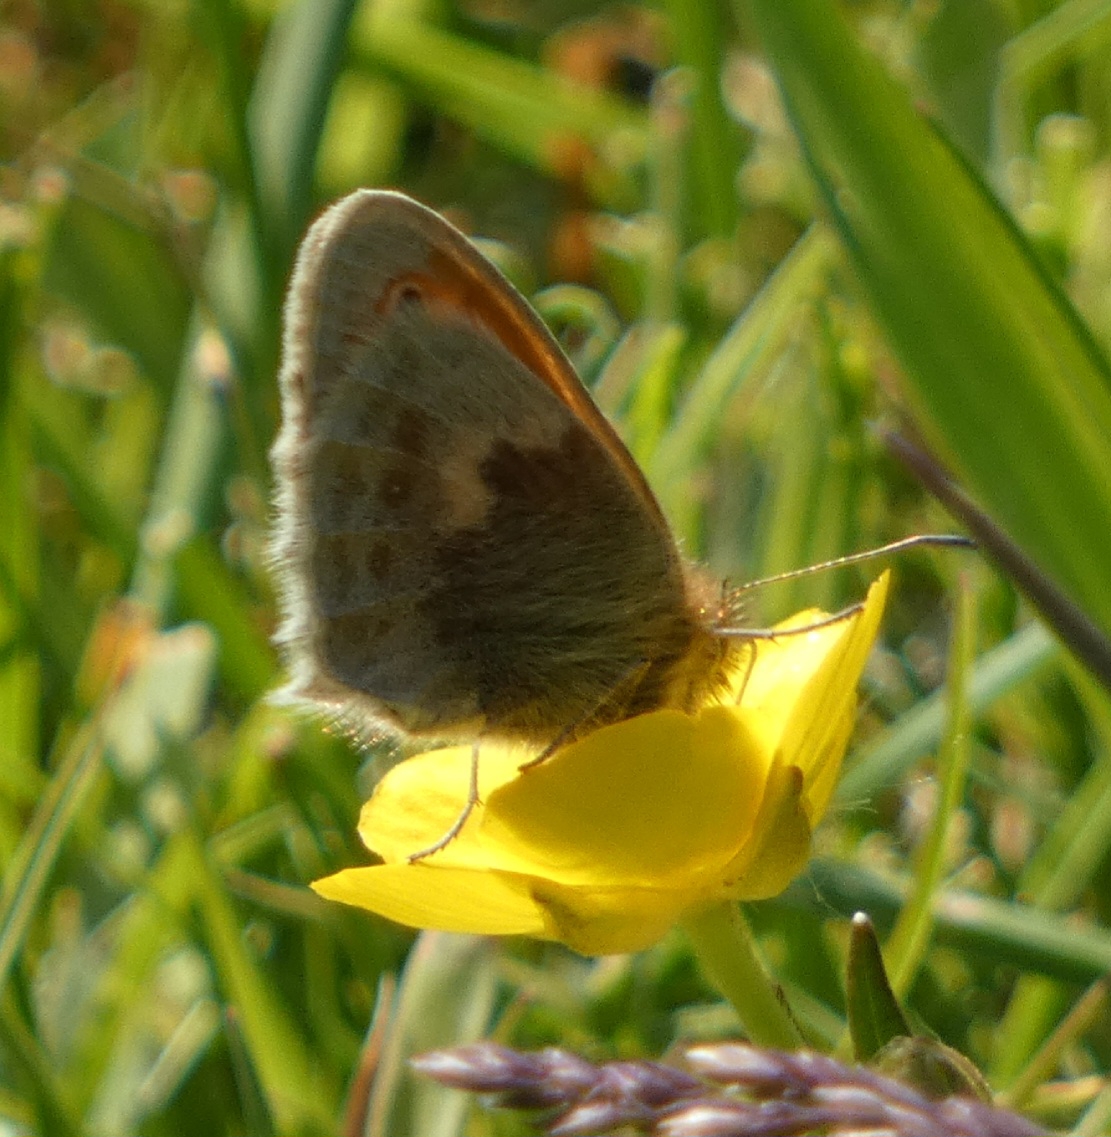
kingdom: Animalia
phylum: Arthropoda
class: Insecta
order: Lepidoptera
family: Nymphalidae
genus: Coenonympha
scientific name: Coenonympha pamphilus
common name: Okkergul randøje
